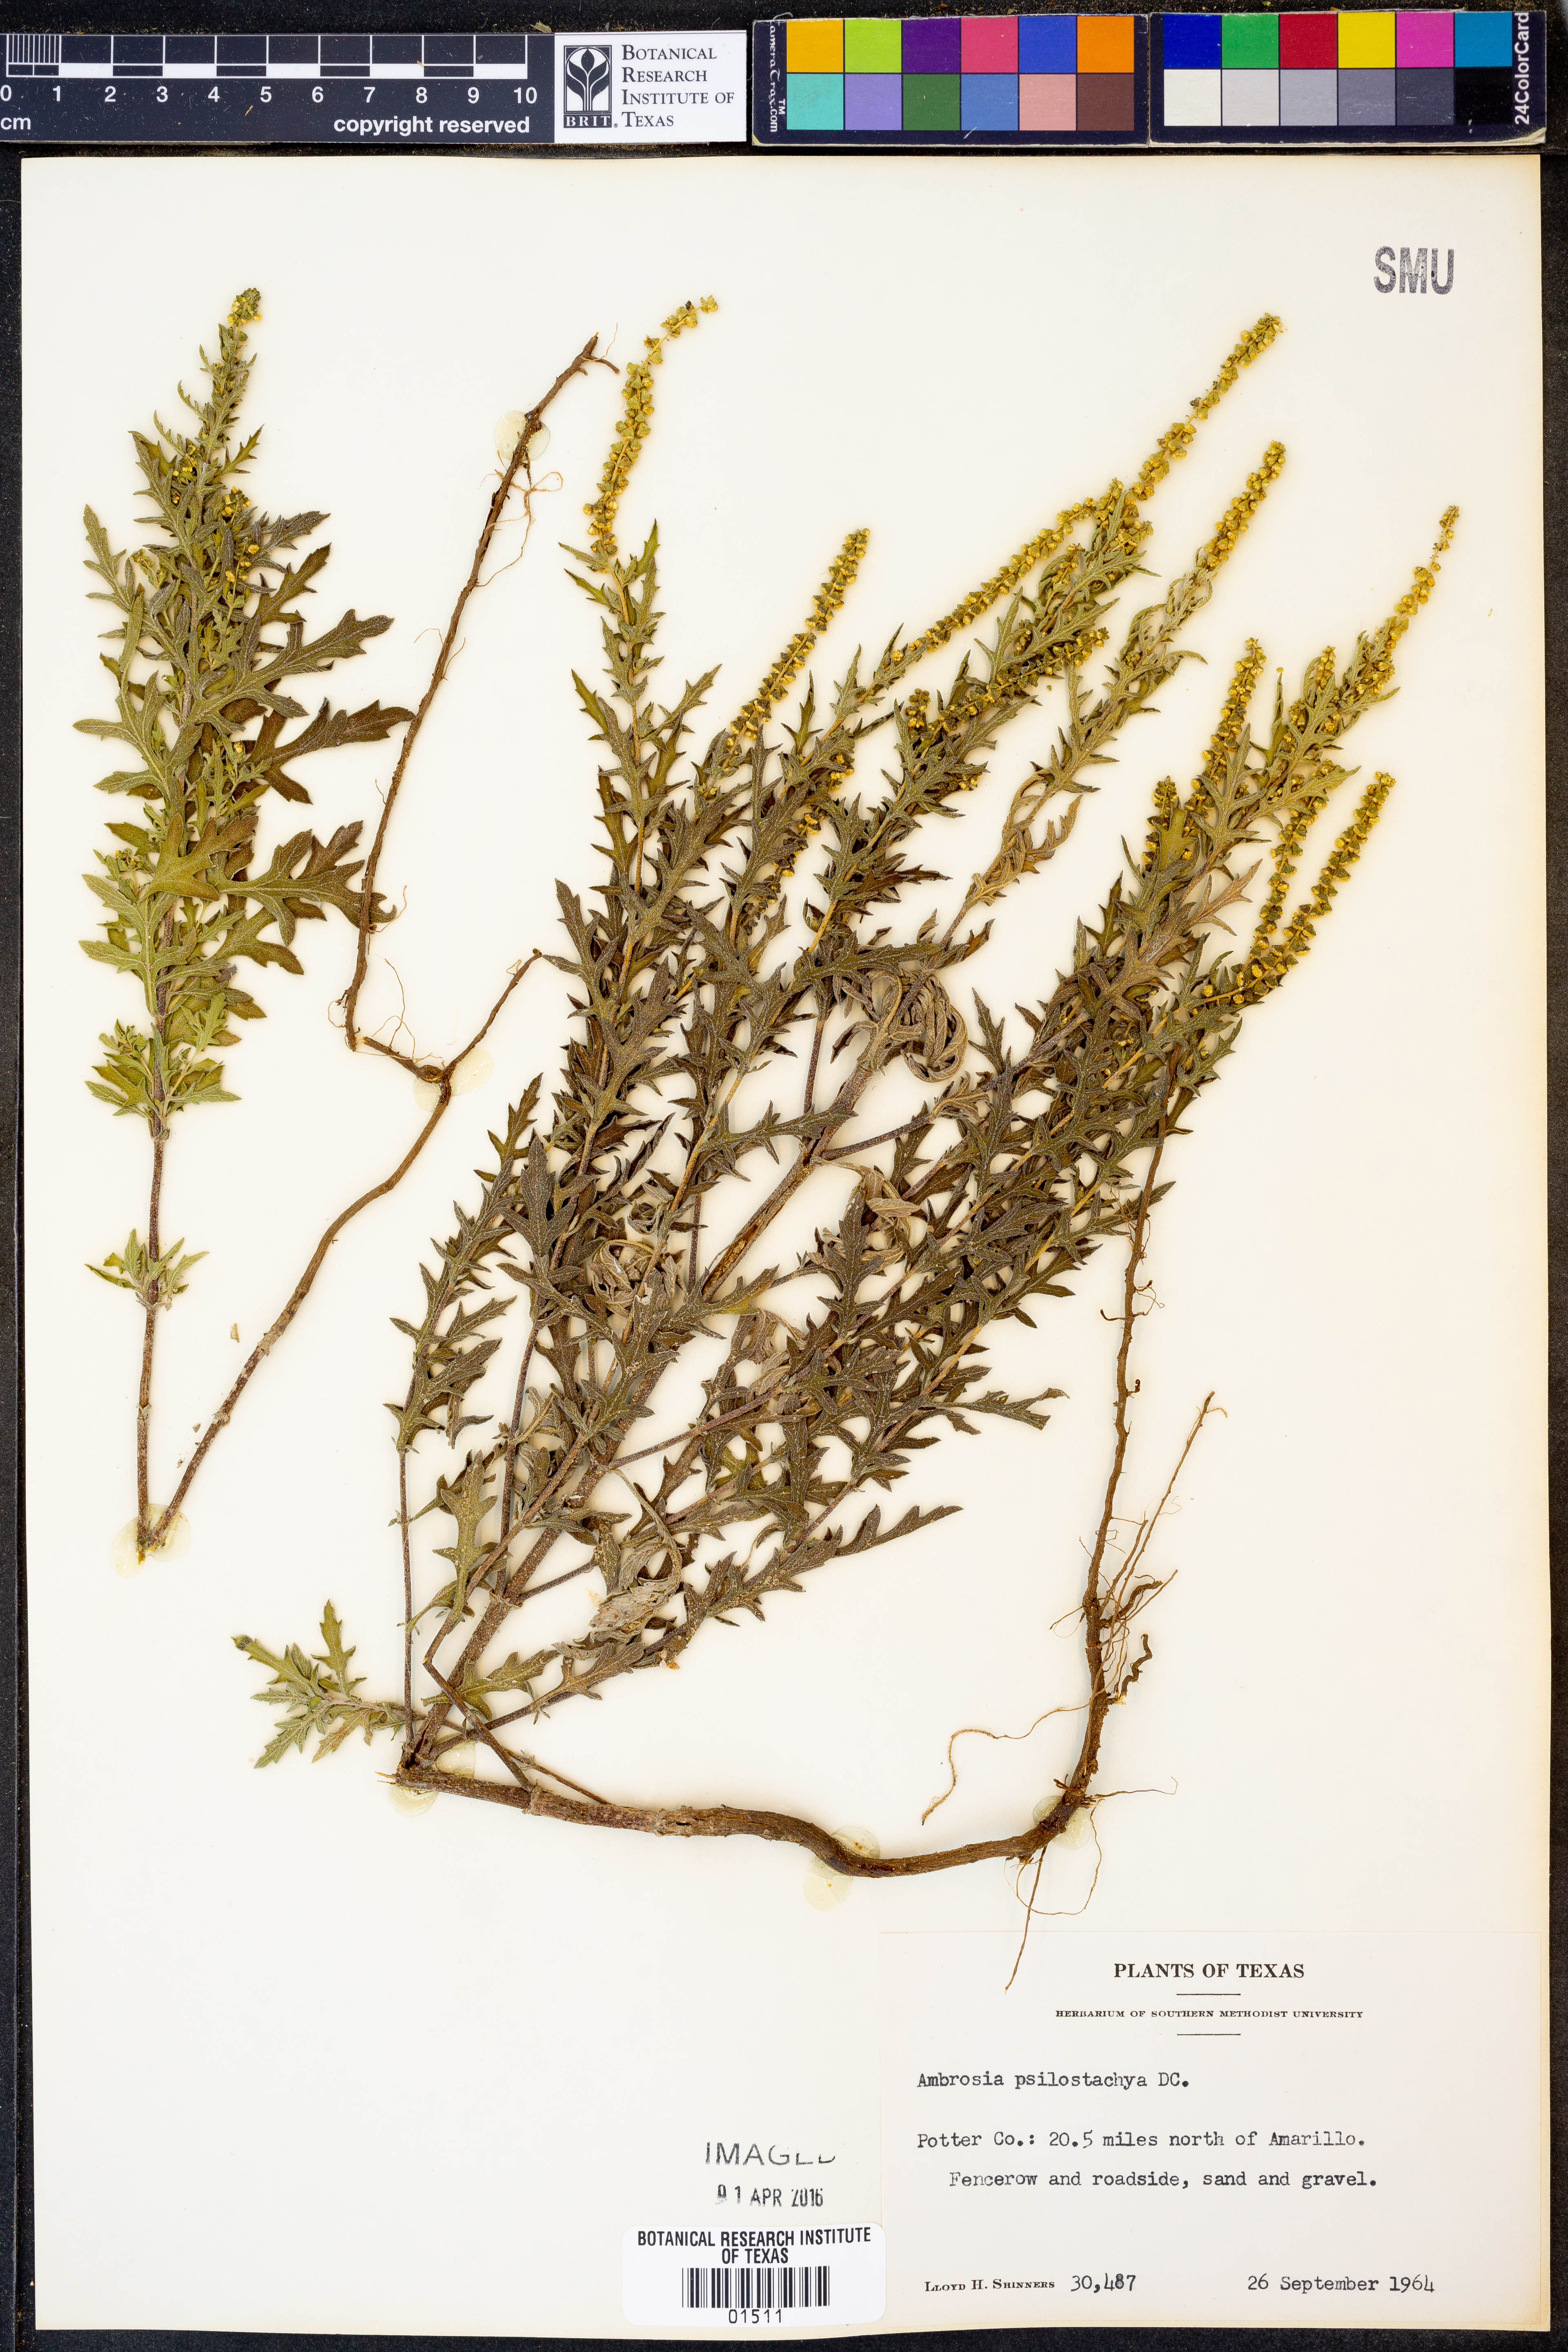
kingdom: Plantae
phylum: Tracheophyta
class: Magnoliopsida
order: Asterales
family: Asteraceae
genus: Ambrosia
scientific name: Ambrosia psilostachya
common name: Perennial ragweed
